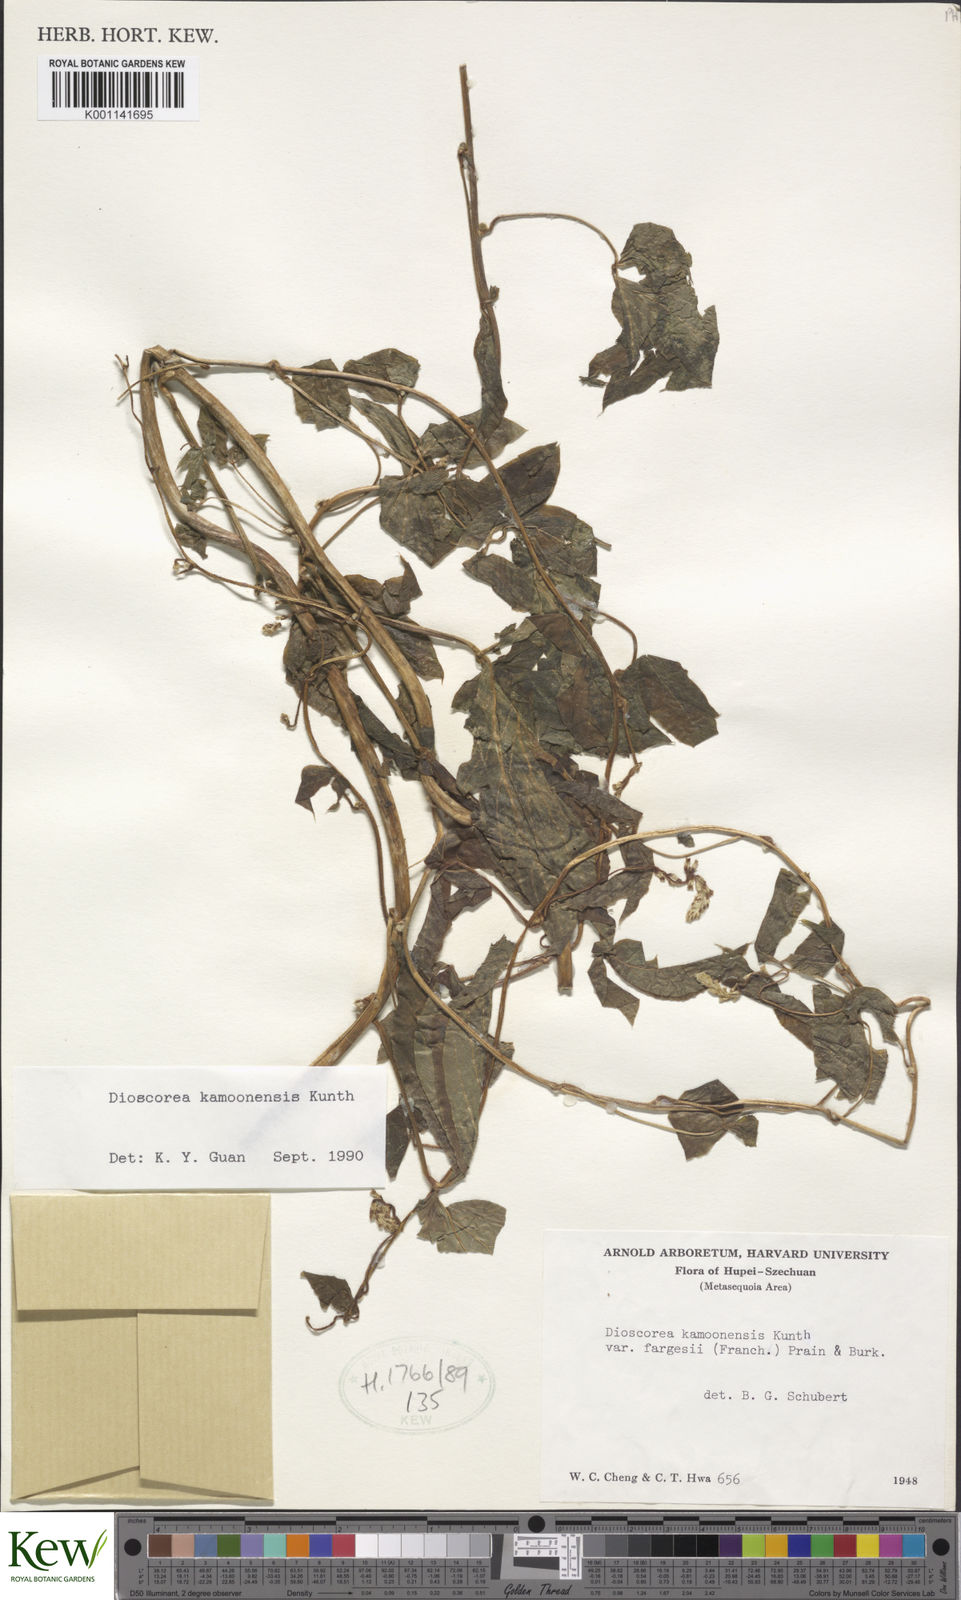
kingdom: Plantae
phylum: Tracheophyta
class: Liliopsida
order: Dioscoreales
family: Dioscoreaceae
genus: Dioscorea
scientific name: Dioscorea kamoonensis
